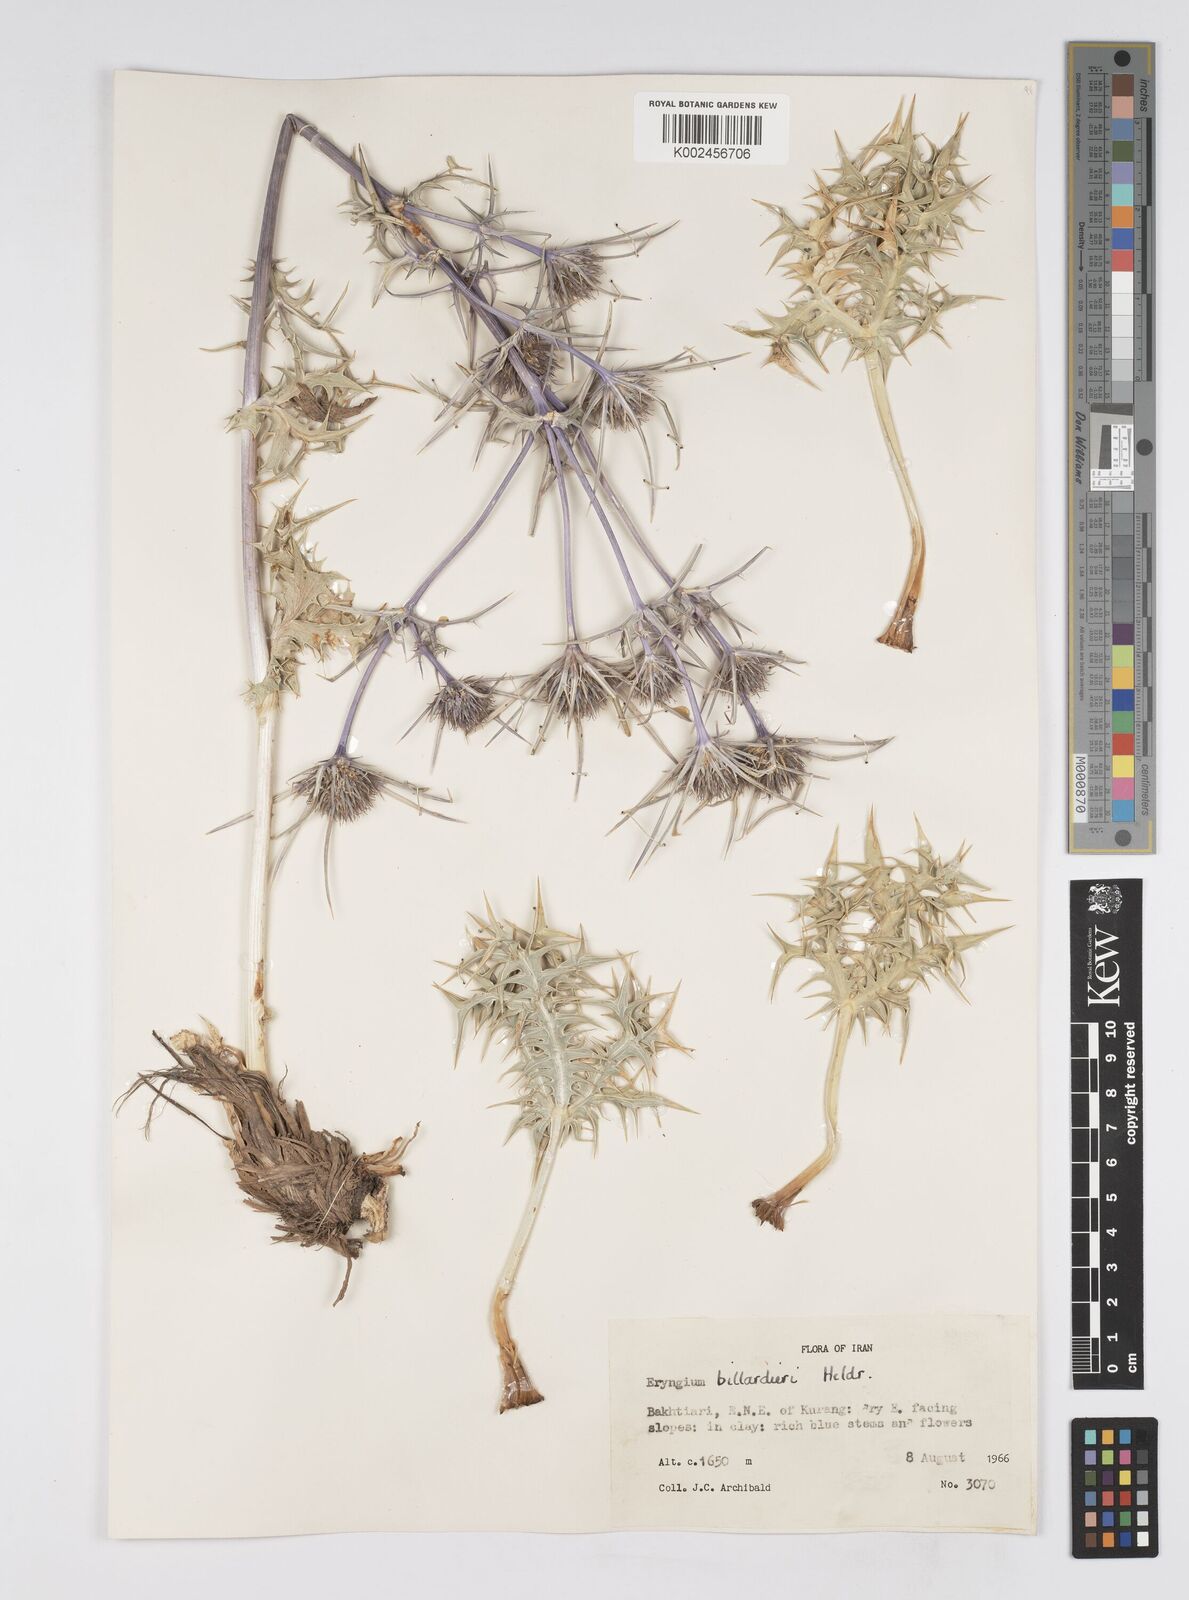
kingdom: Plantae
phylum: Tracheophyta
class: Magnoliopsida
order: Apiales
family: Apiaceae
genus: Eryngium
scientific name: Eryngium heldreichii
